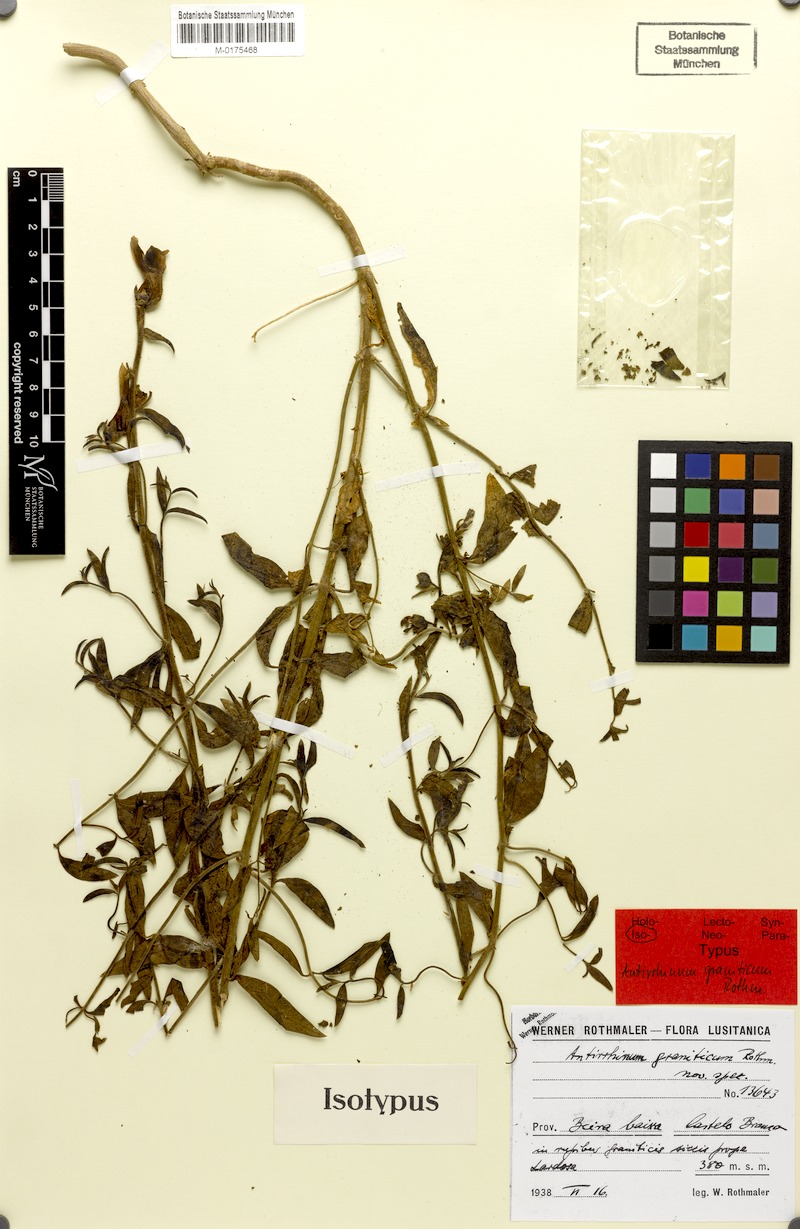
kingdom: Plantae
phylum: Tracheophyta
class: Magnoliopsida
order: Lamiales
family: Plantaginaceae
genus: Antirrhinum
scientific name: Antirrhinum graniticum
